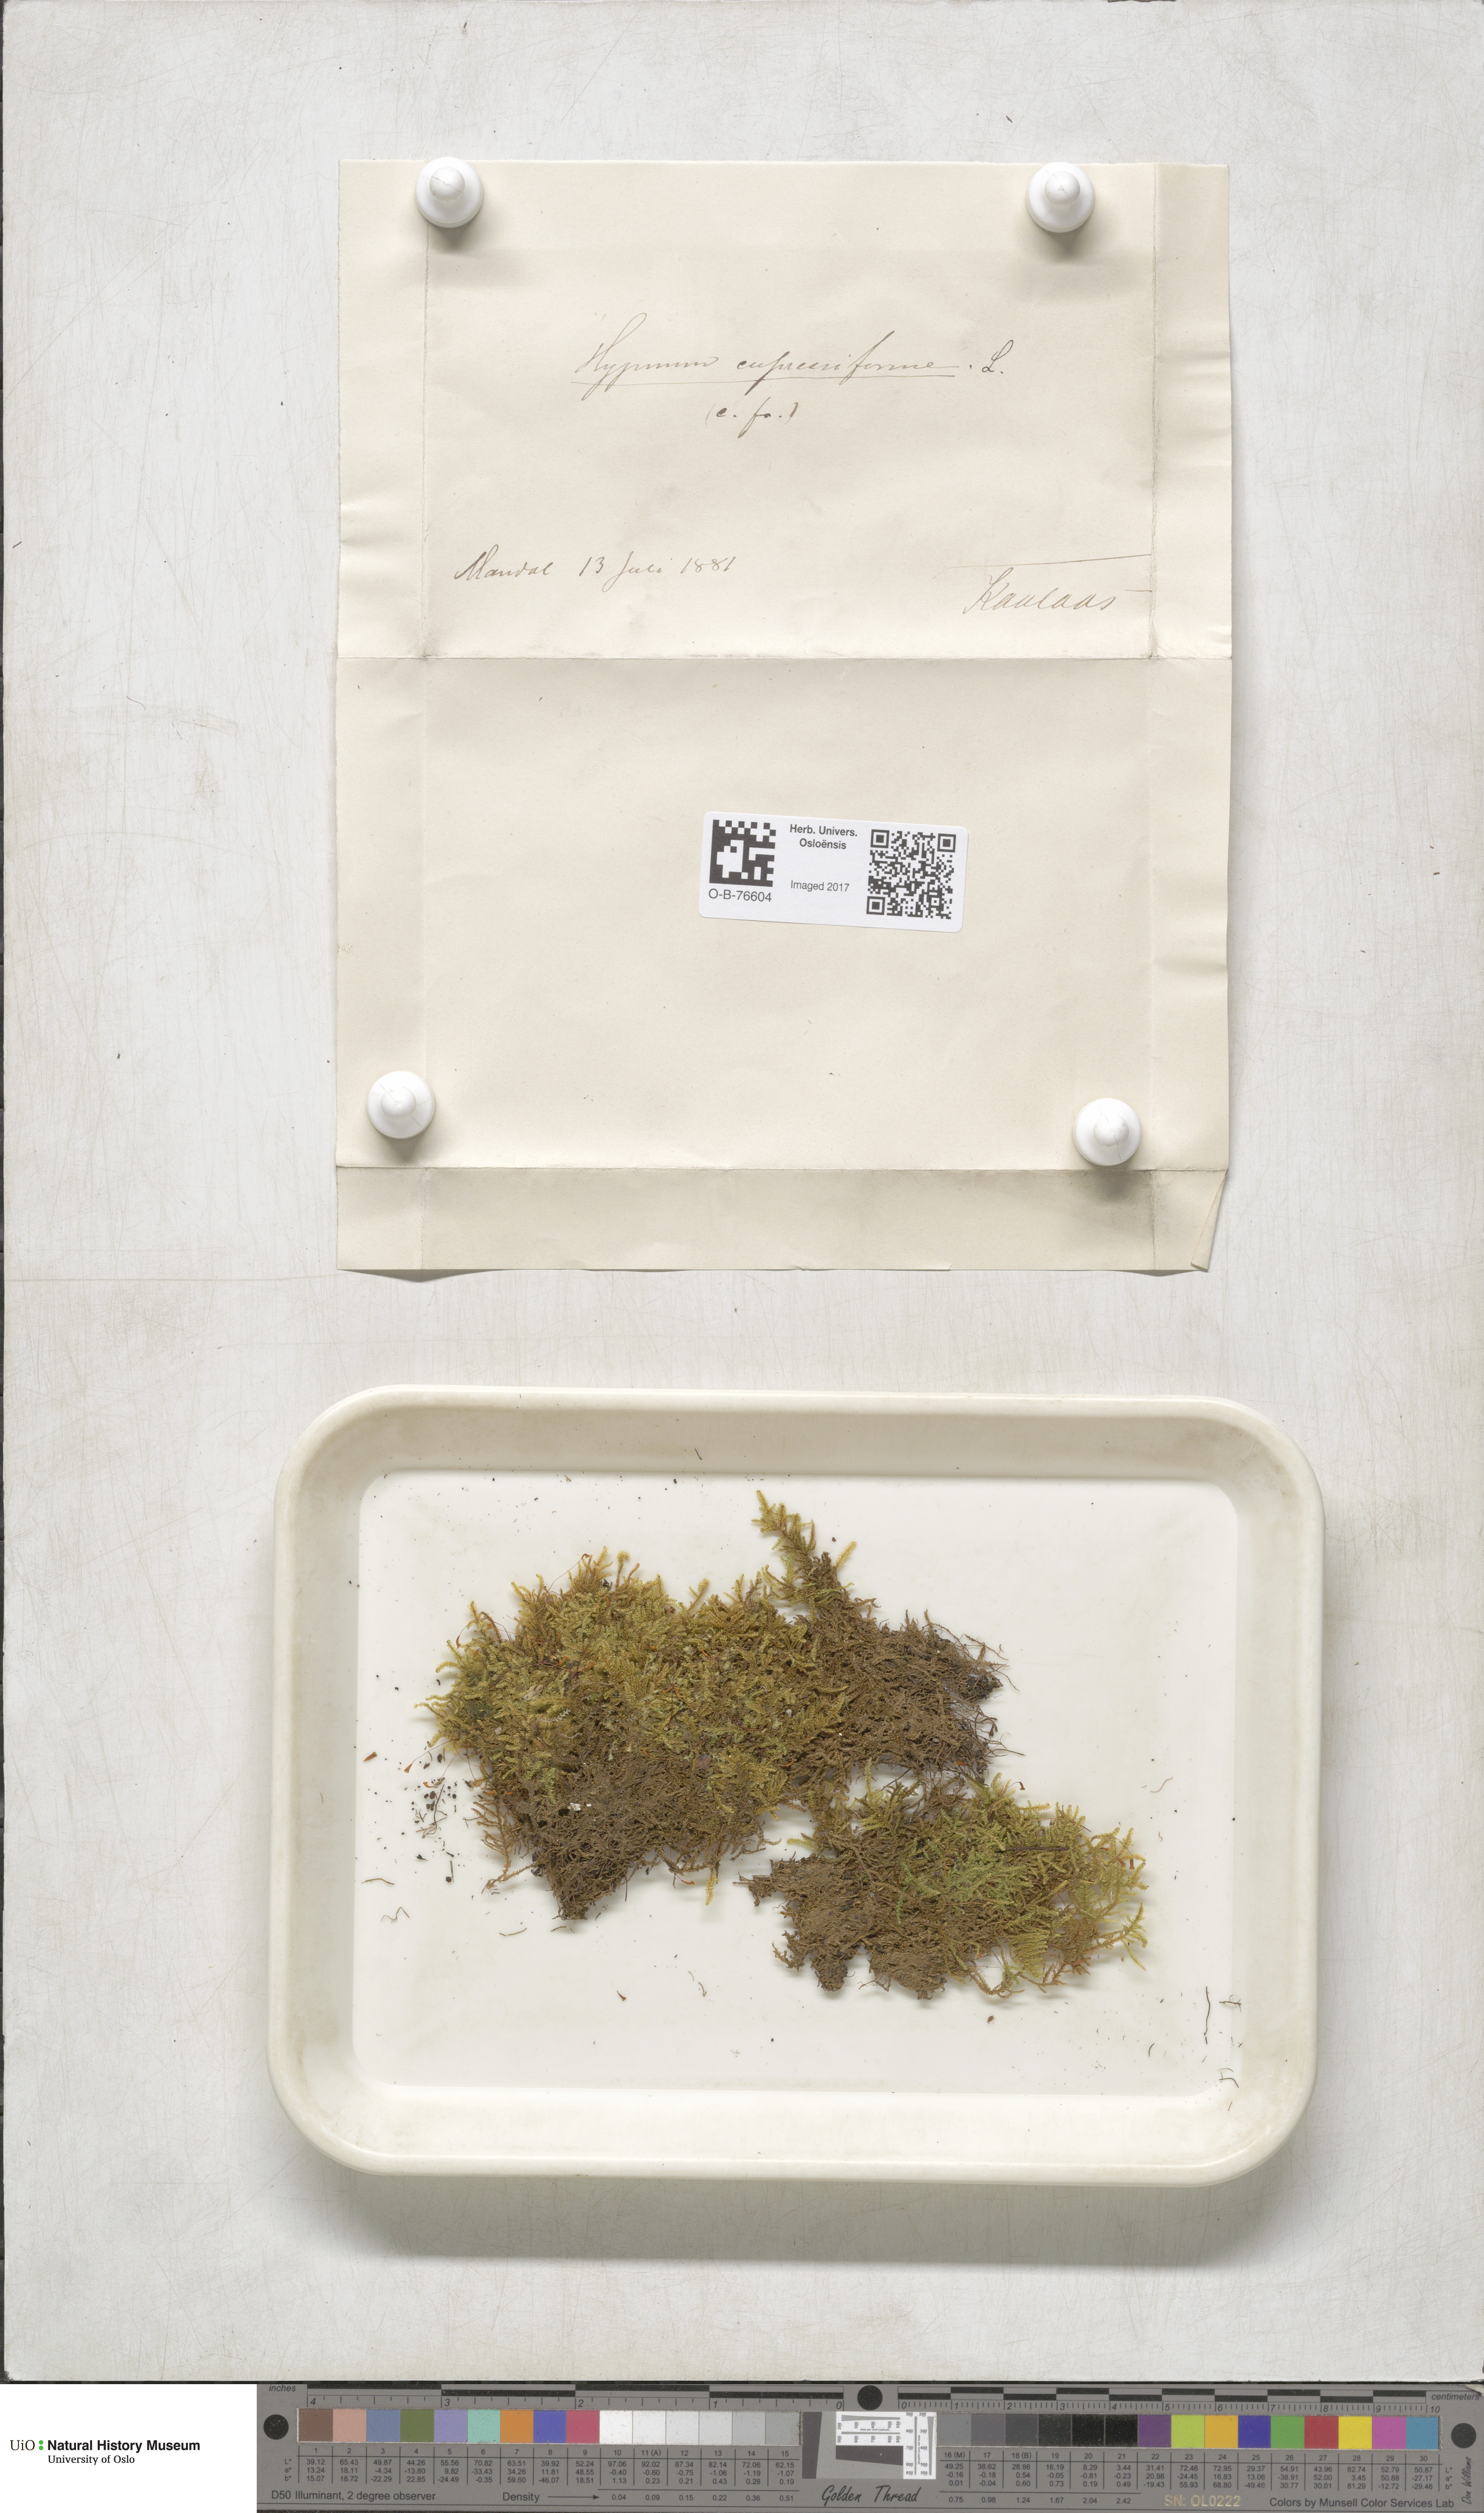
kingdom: Plantae
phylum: Bryophyta
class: Bryopsida
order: Hypnales
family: Hypnaceae
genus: Hypnum
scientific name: Hypnum cupressiforme
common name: Cypress-leaved plait-moss
